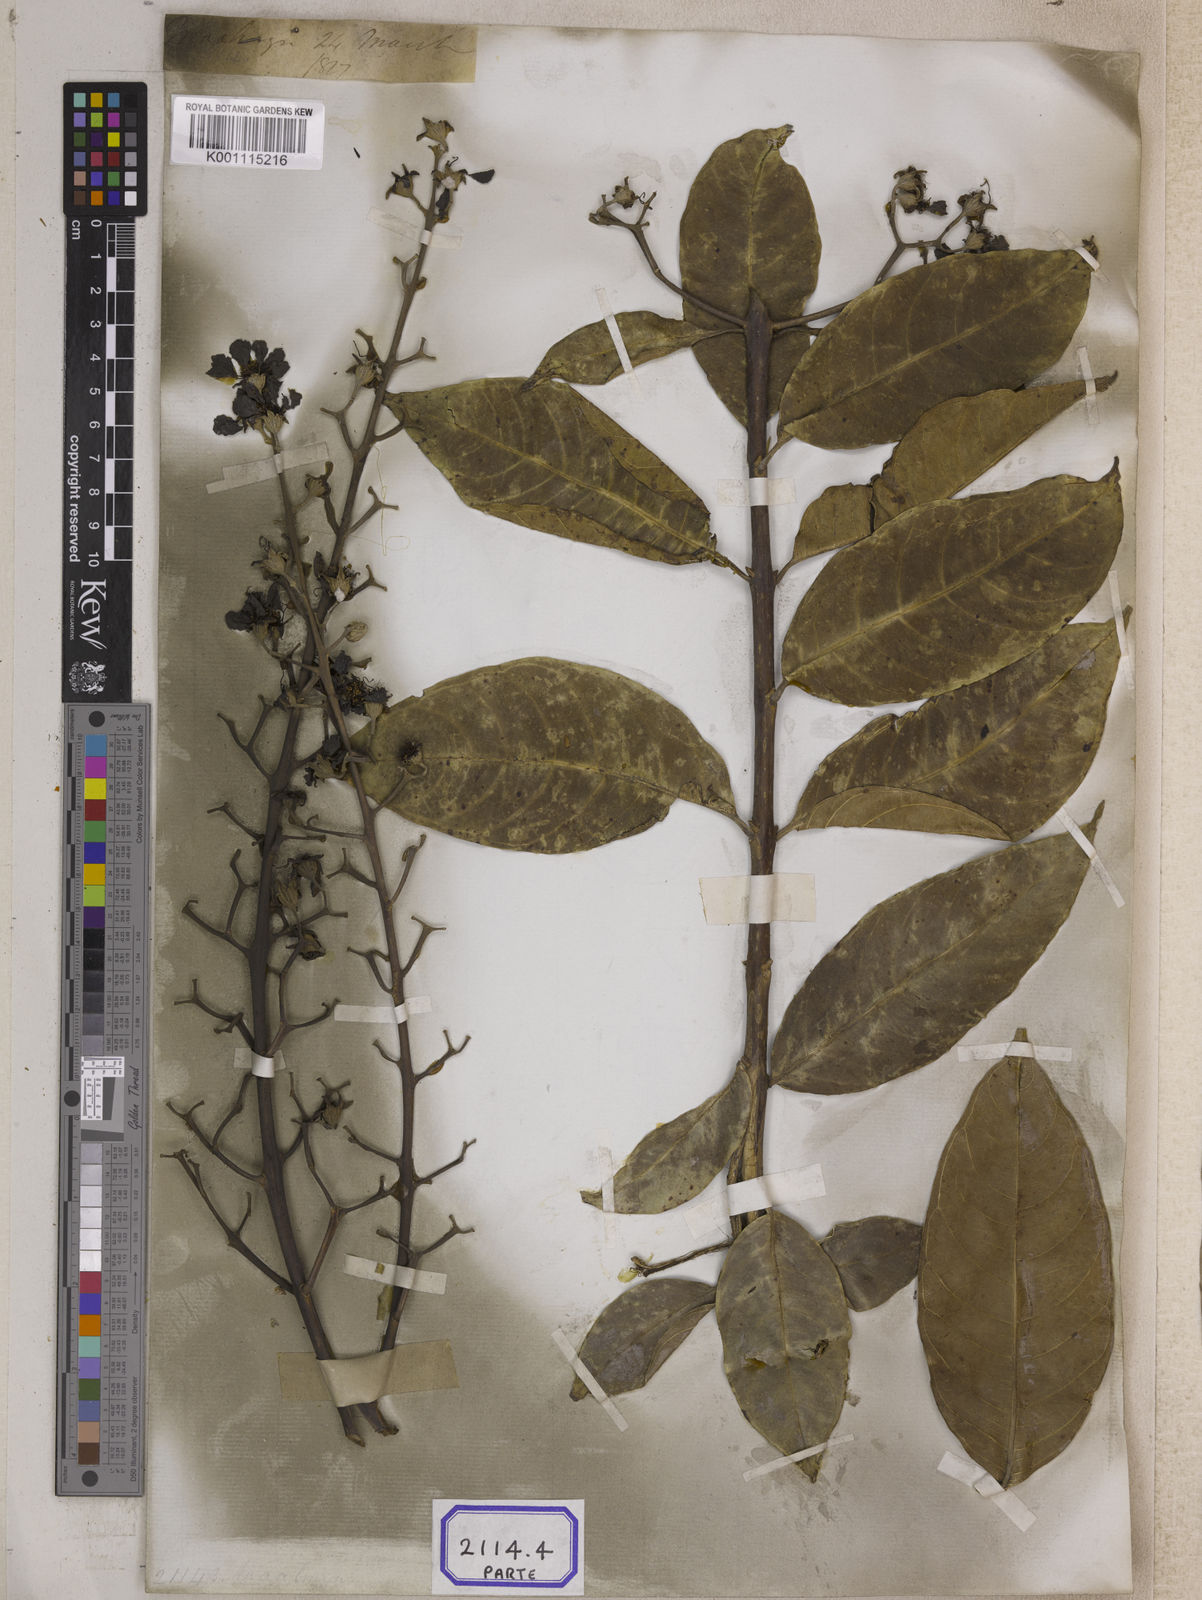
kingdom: Plantae
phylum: Tracheophyta
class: Magnoliopsida
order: Myrtales
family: Lythraceae
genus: Lagerstroemia
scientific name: Lagerstroemia
